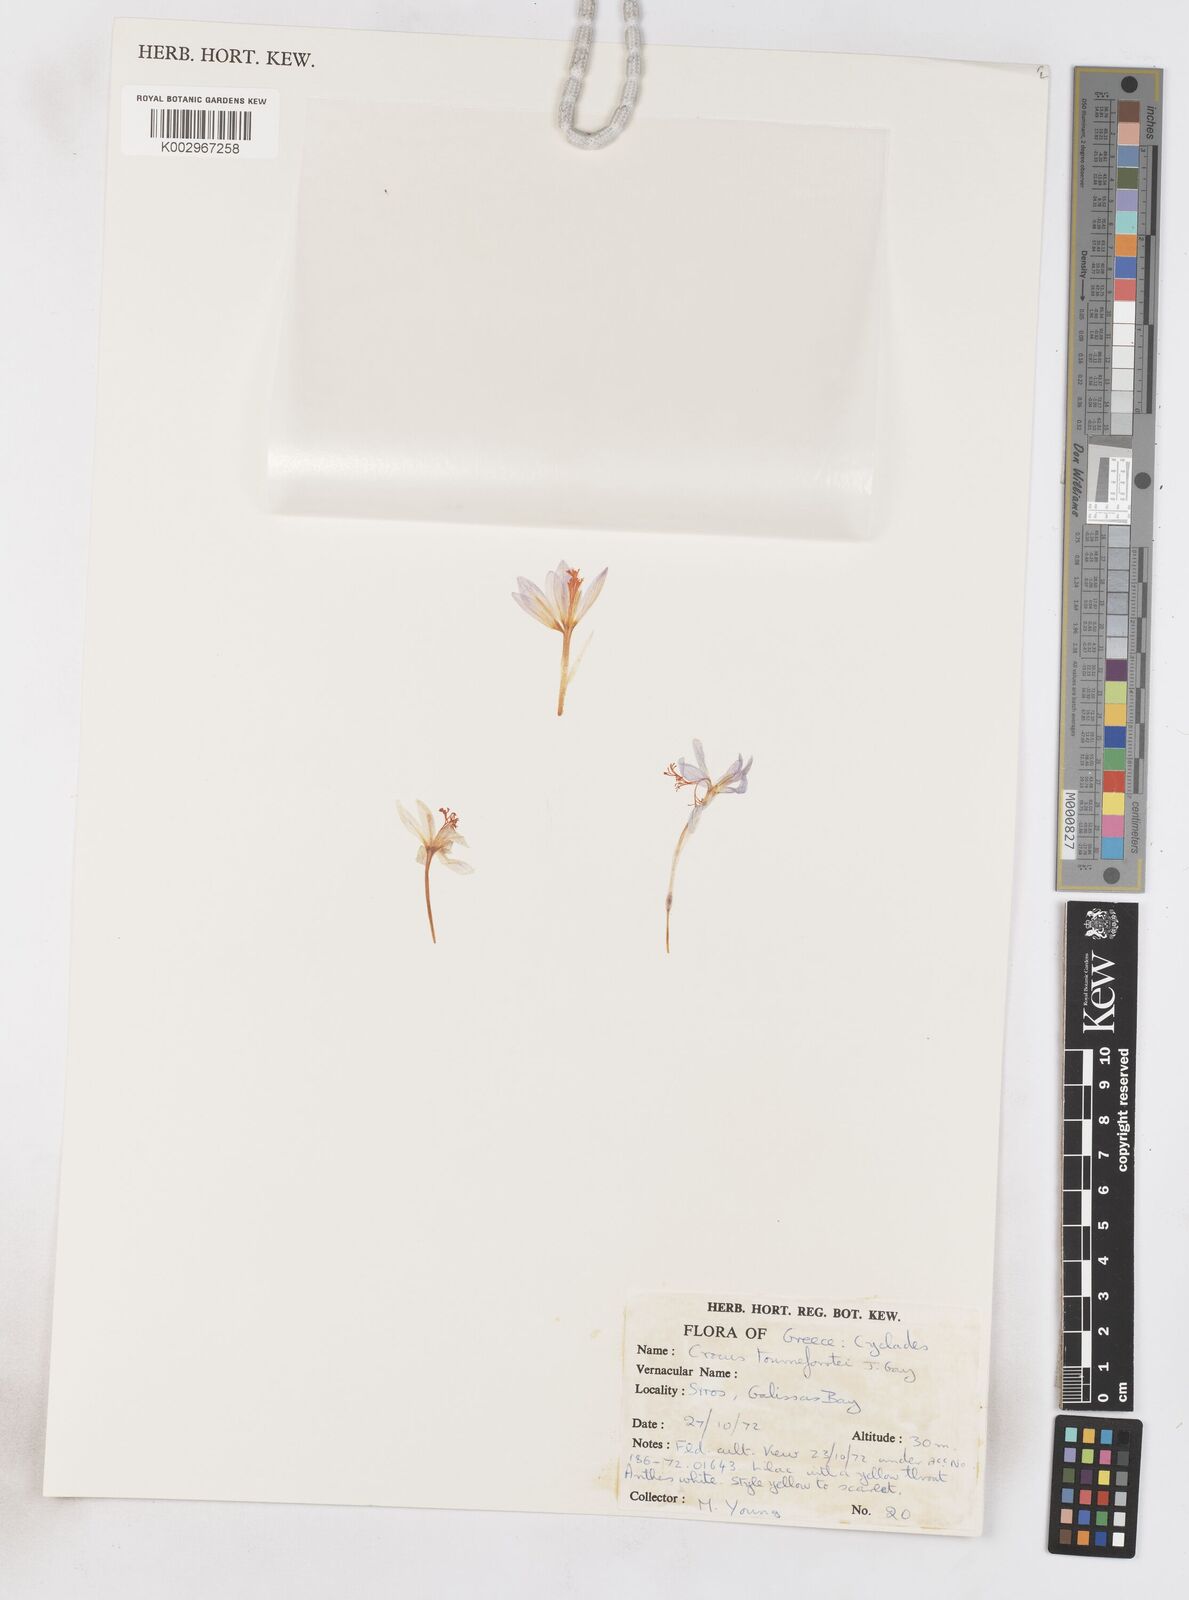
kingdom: Plantae
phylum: Tracheophyta
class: Liliopsida
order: Asparagales
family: Iridaceae
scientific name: Iridaceae
